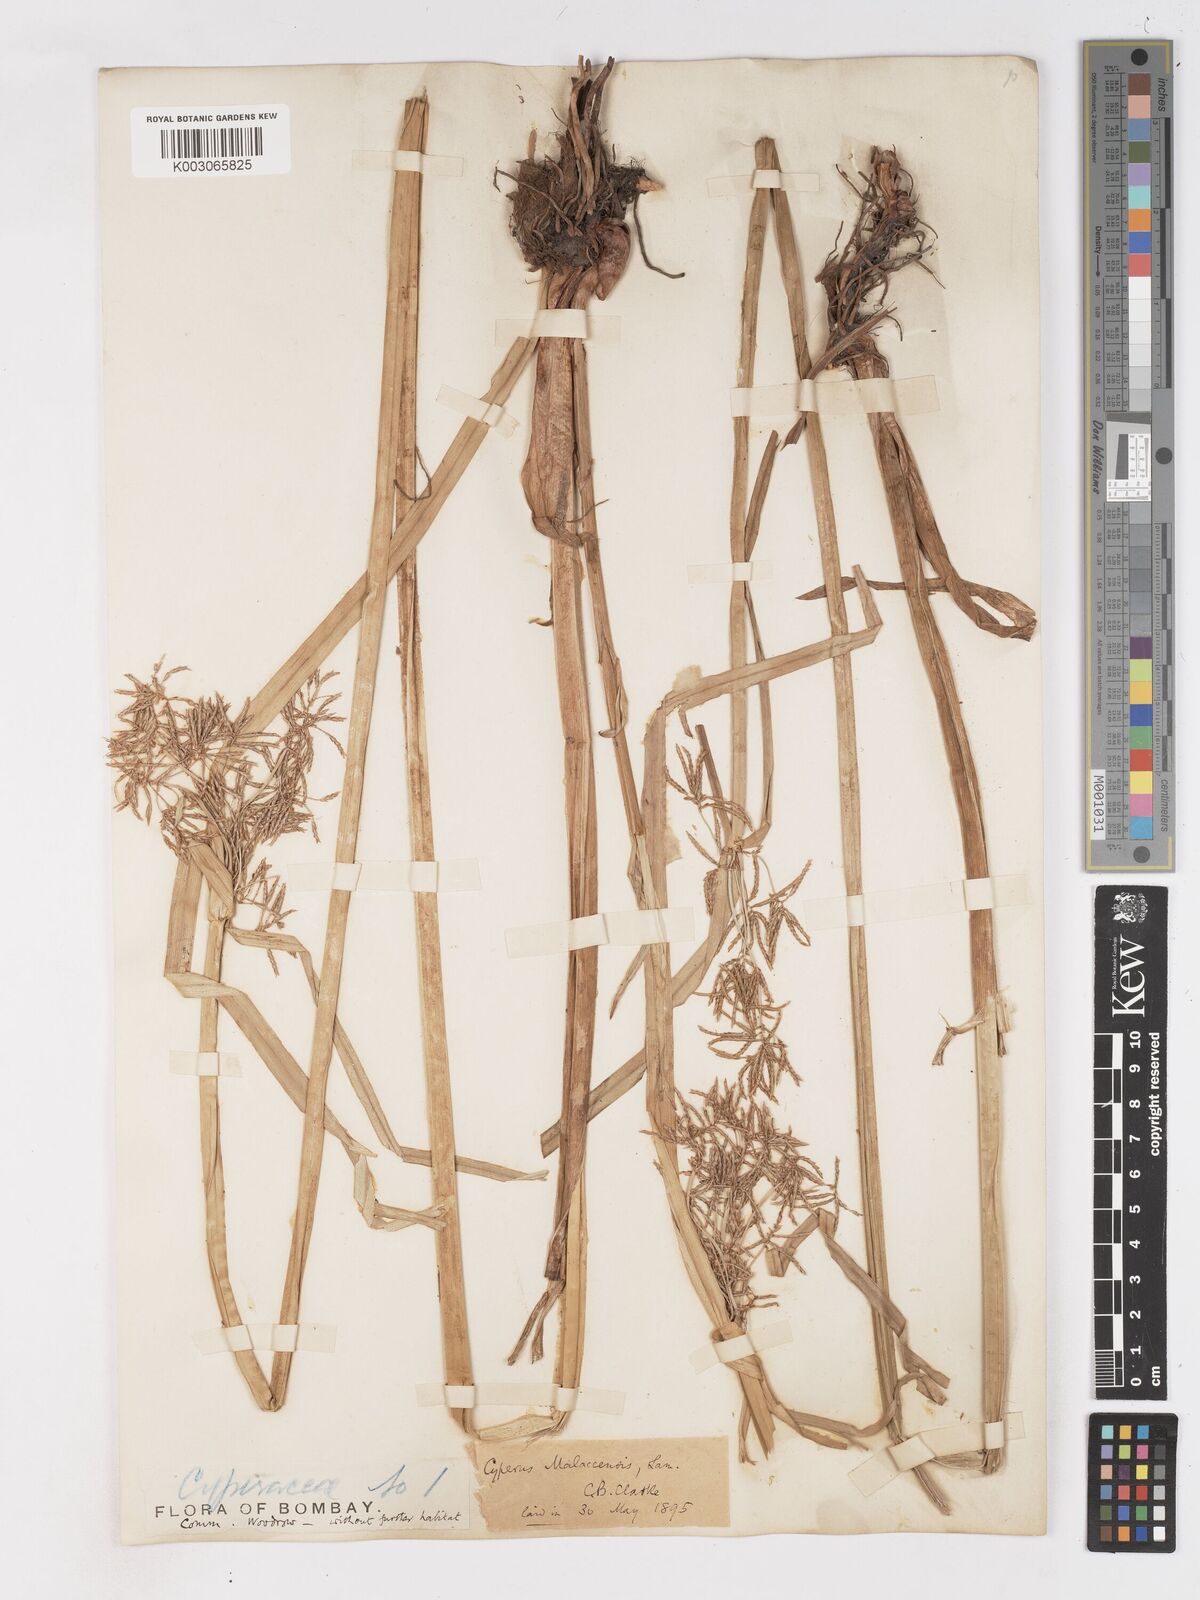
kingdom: Plantae
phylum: Tracheophyta
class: Liliopsida
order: Poales
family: Cyperaceae
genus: Cyperus
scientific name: Cyperus malaccensis
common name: Shichito matgrass
